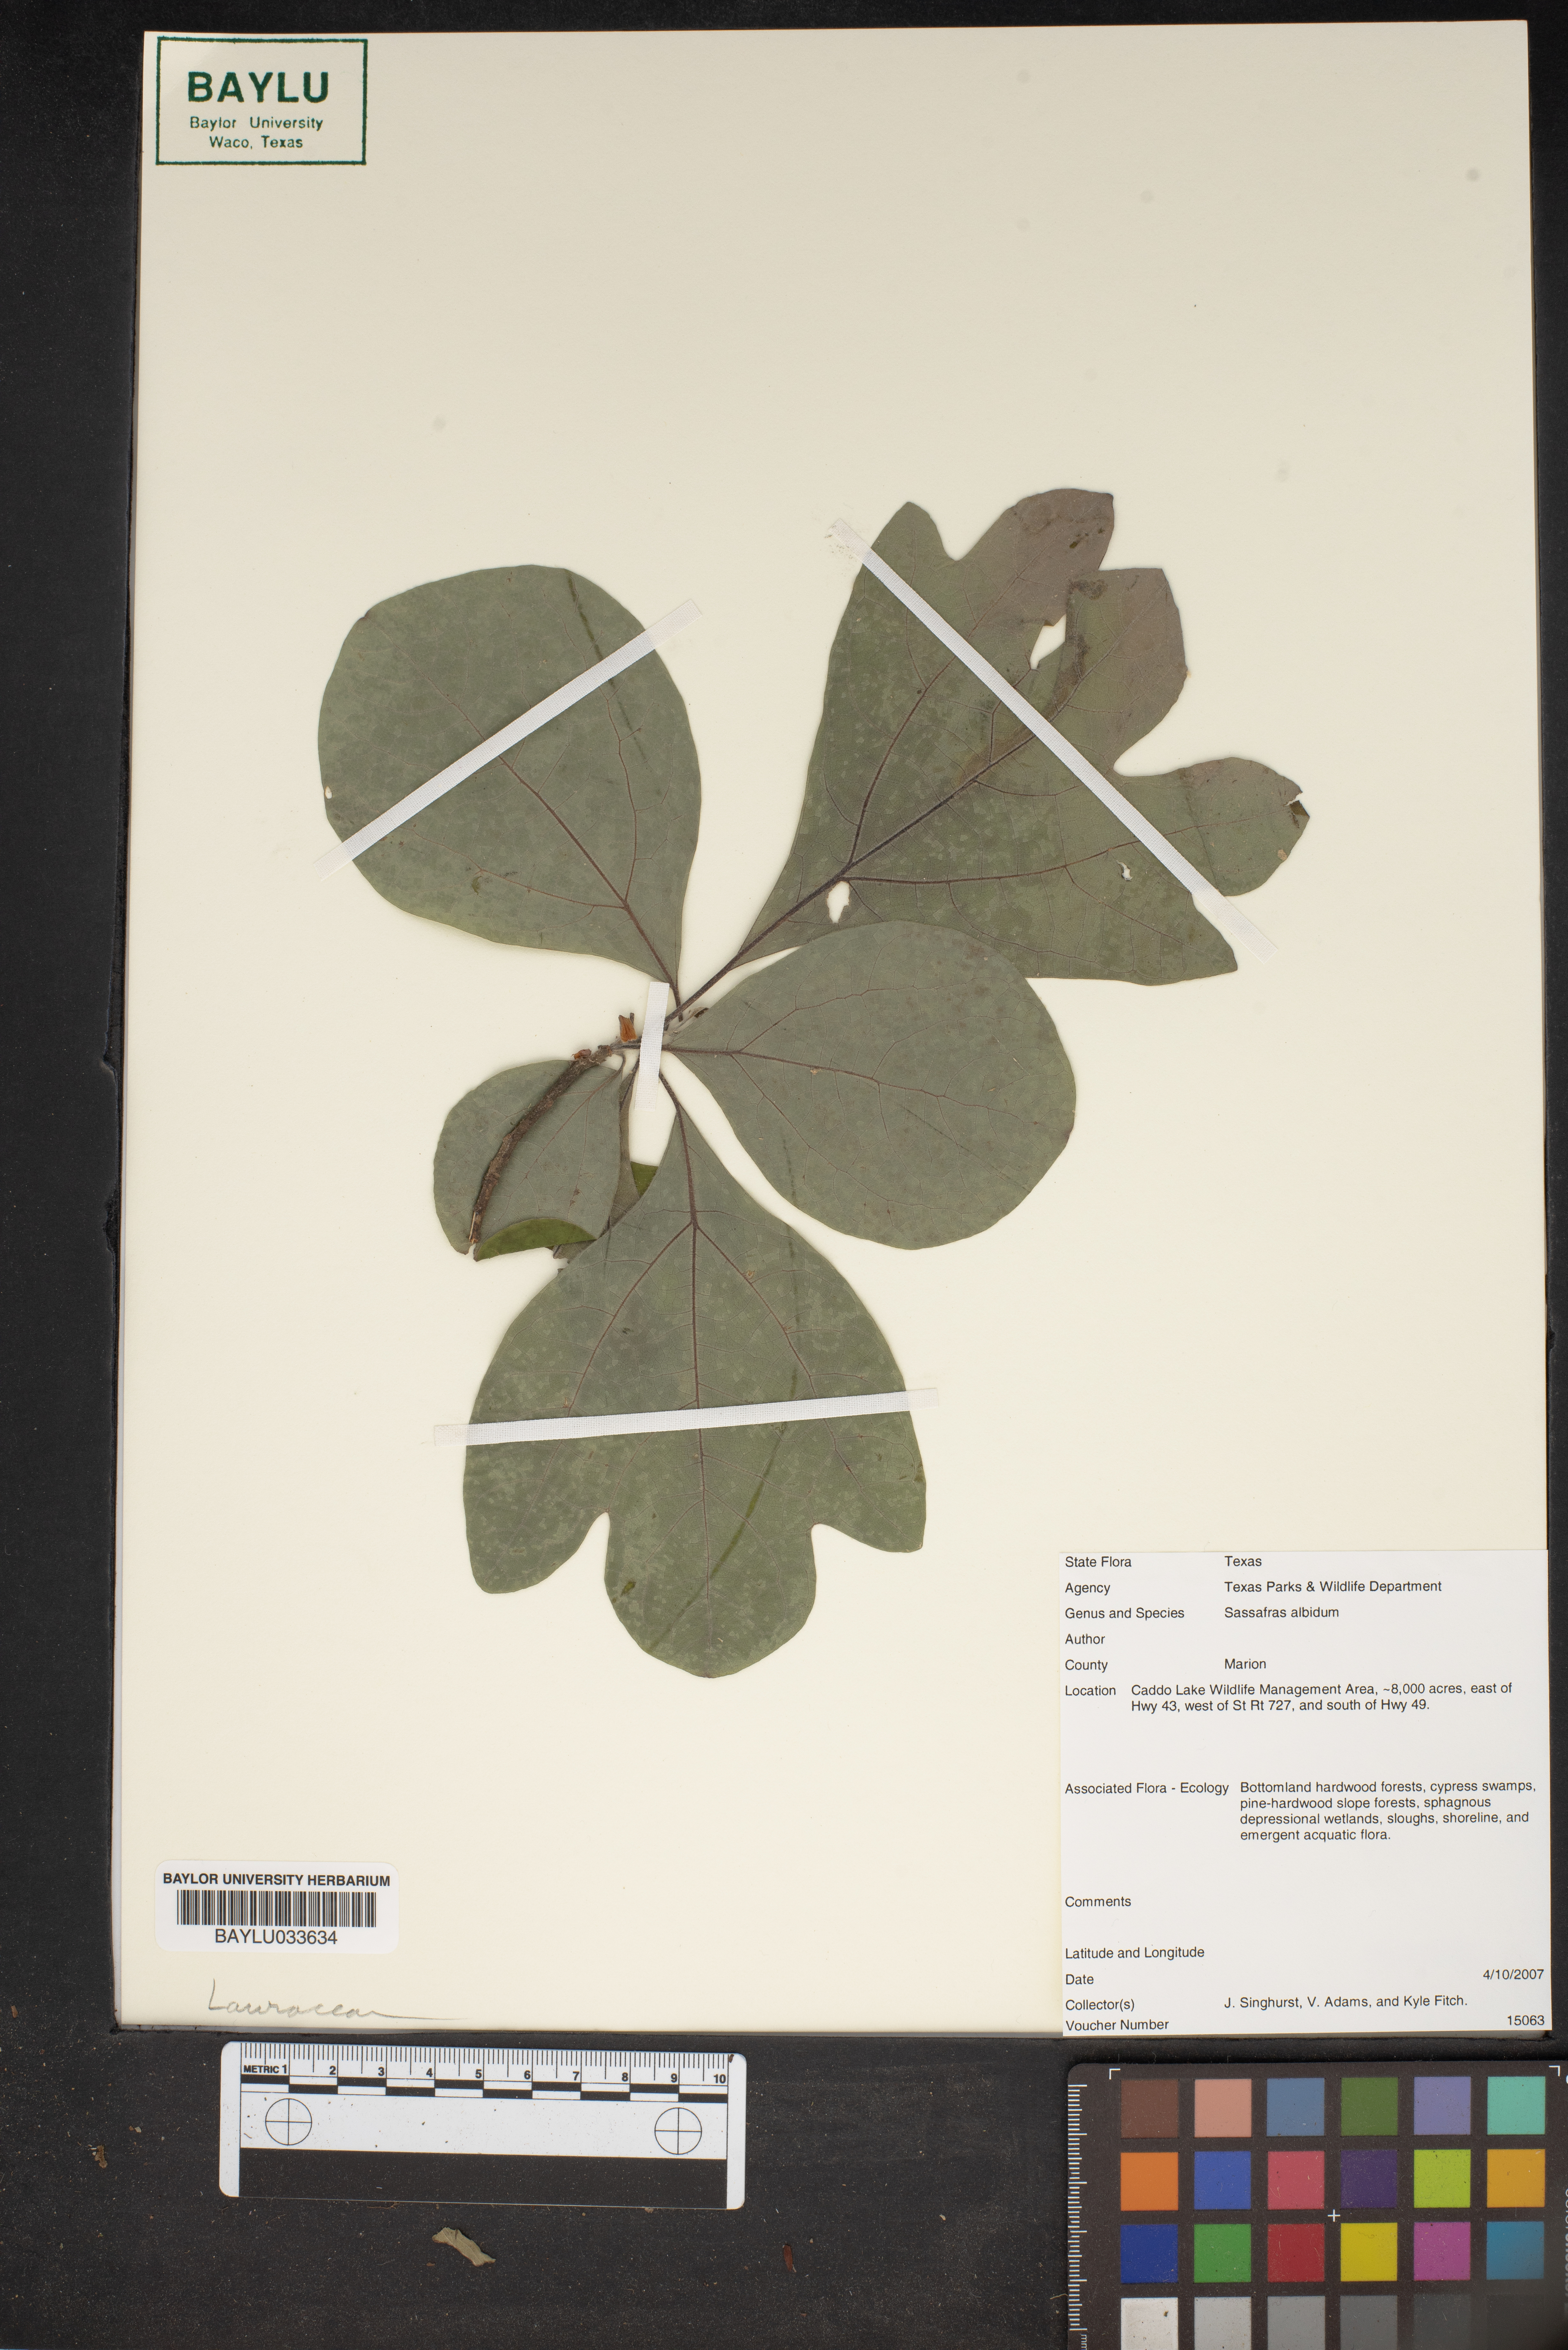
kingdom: Plantae
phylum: Tracheophyta
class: Magnoliopsida
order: Laurales
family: Lauraceae
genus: Sassafras
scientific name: Sassafras albidum
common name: Sassafras
